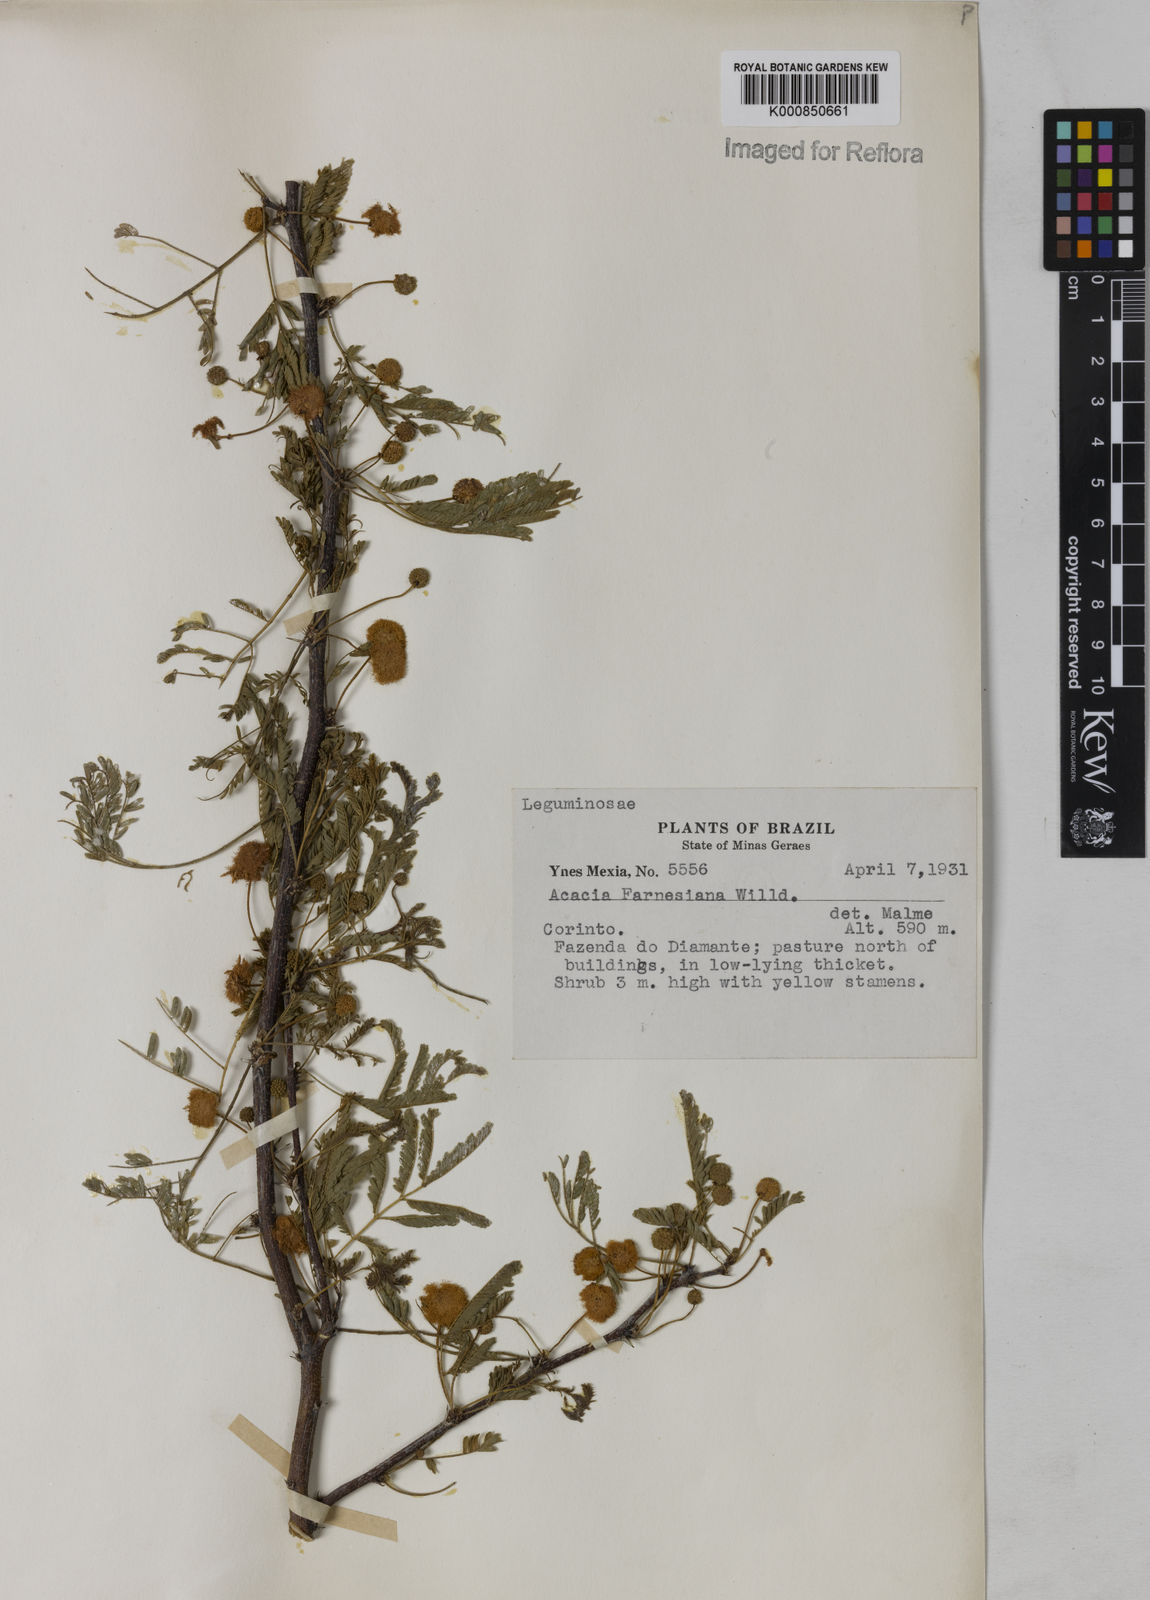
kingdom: Plantae
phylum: Tracheophyta
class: Magnoliopsida
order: Fabales
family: Fabaceae
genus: Vachellia
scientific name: Vachellia farnesiana
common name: Sweet acacia
